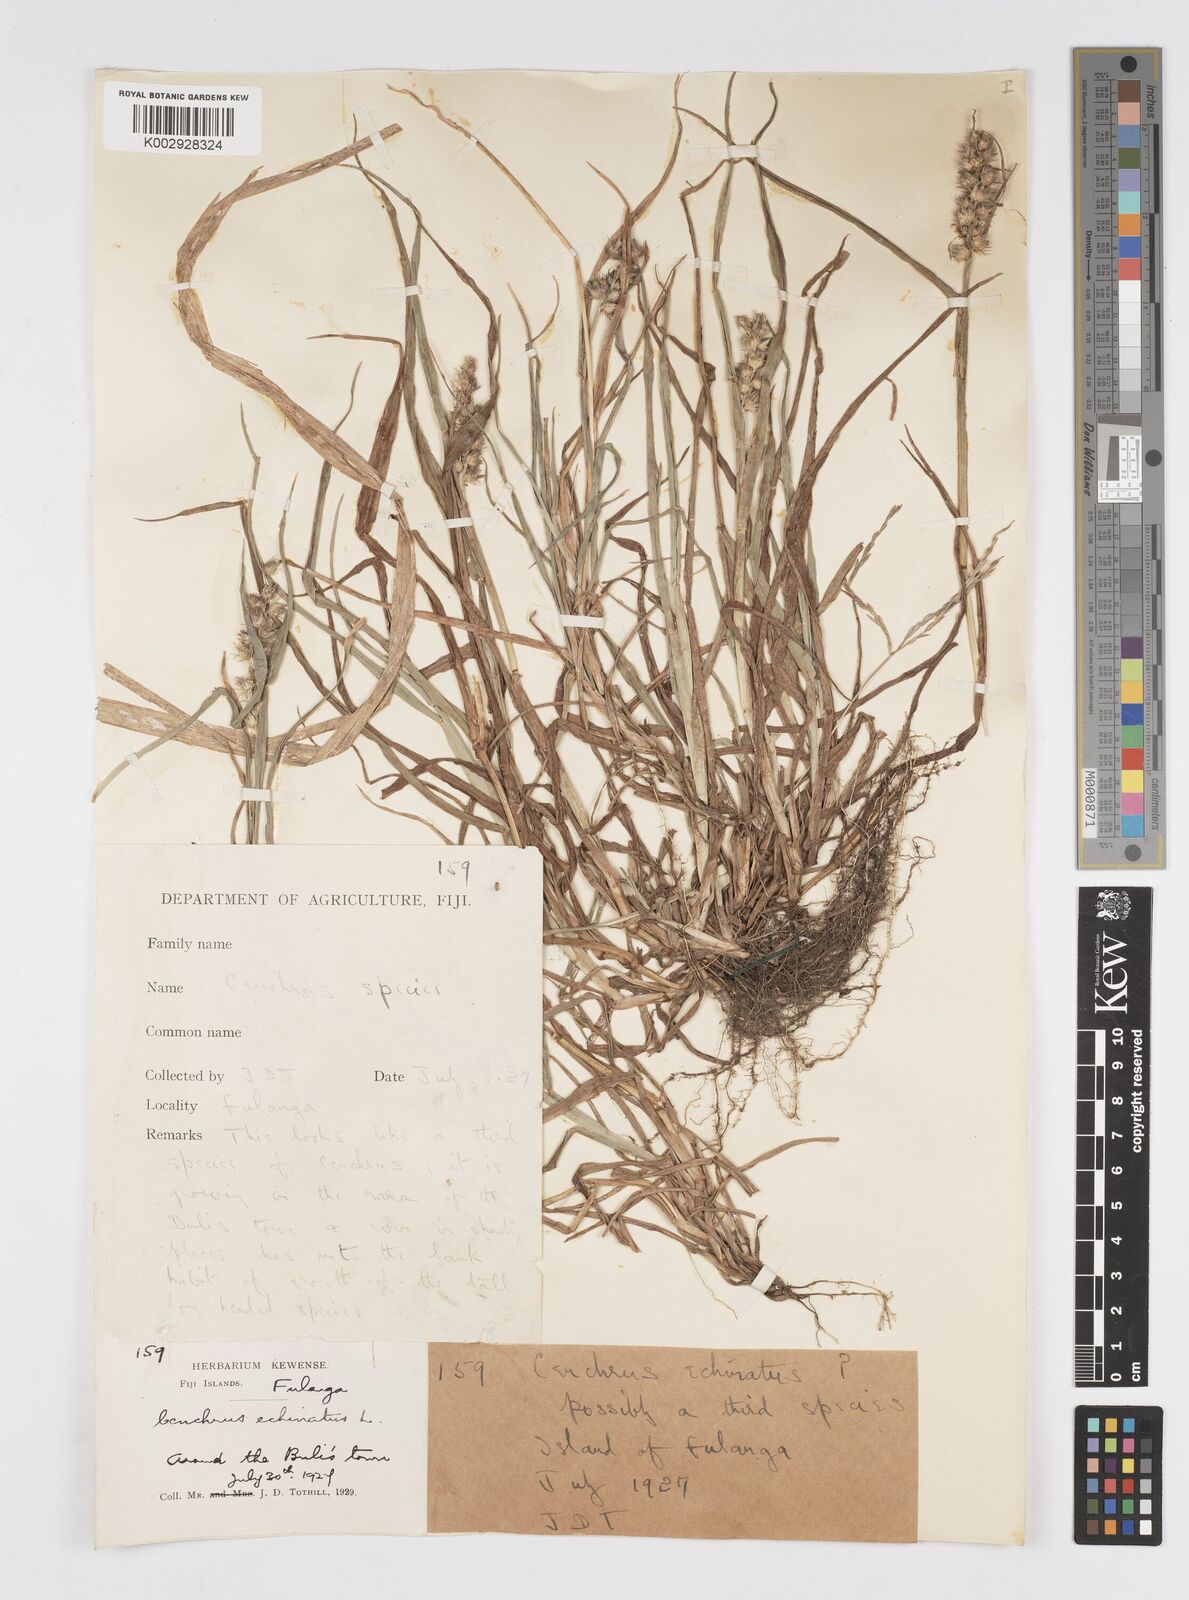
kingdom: Plantae
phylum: Tracheophyta
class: Liliopsida
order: Poales
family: Poaceae
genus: Cenchrus
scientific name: Cenchrus echinatus
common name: Southern sandbur
